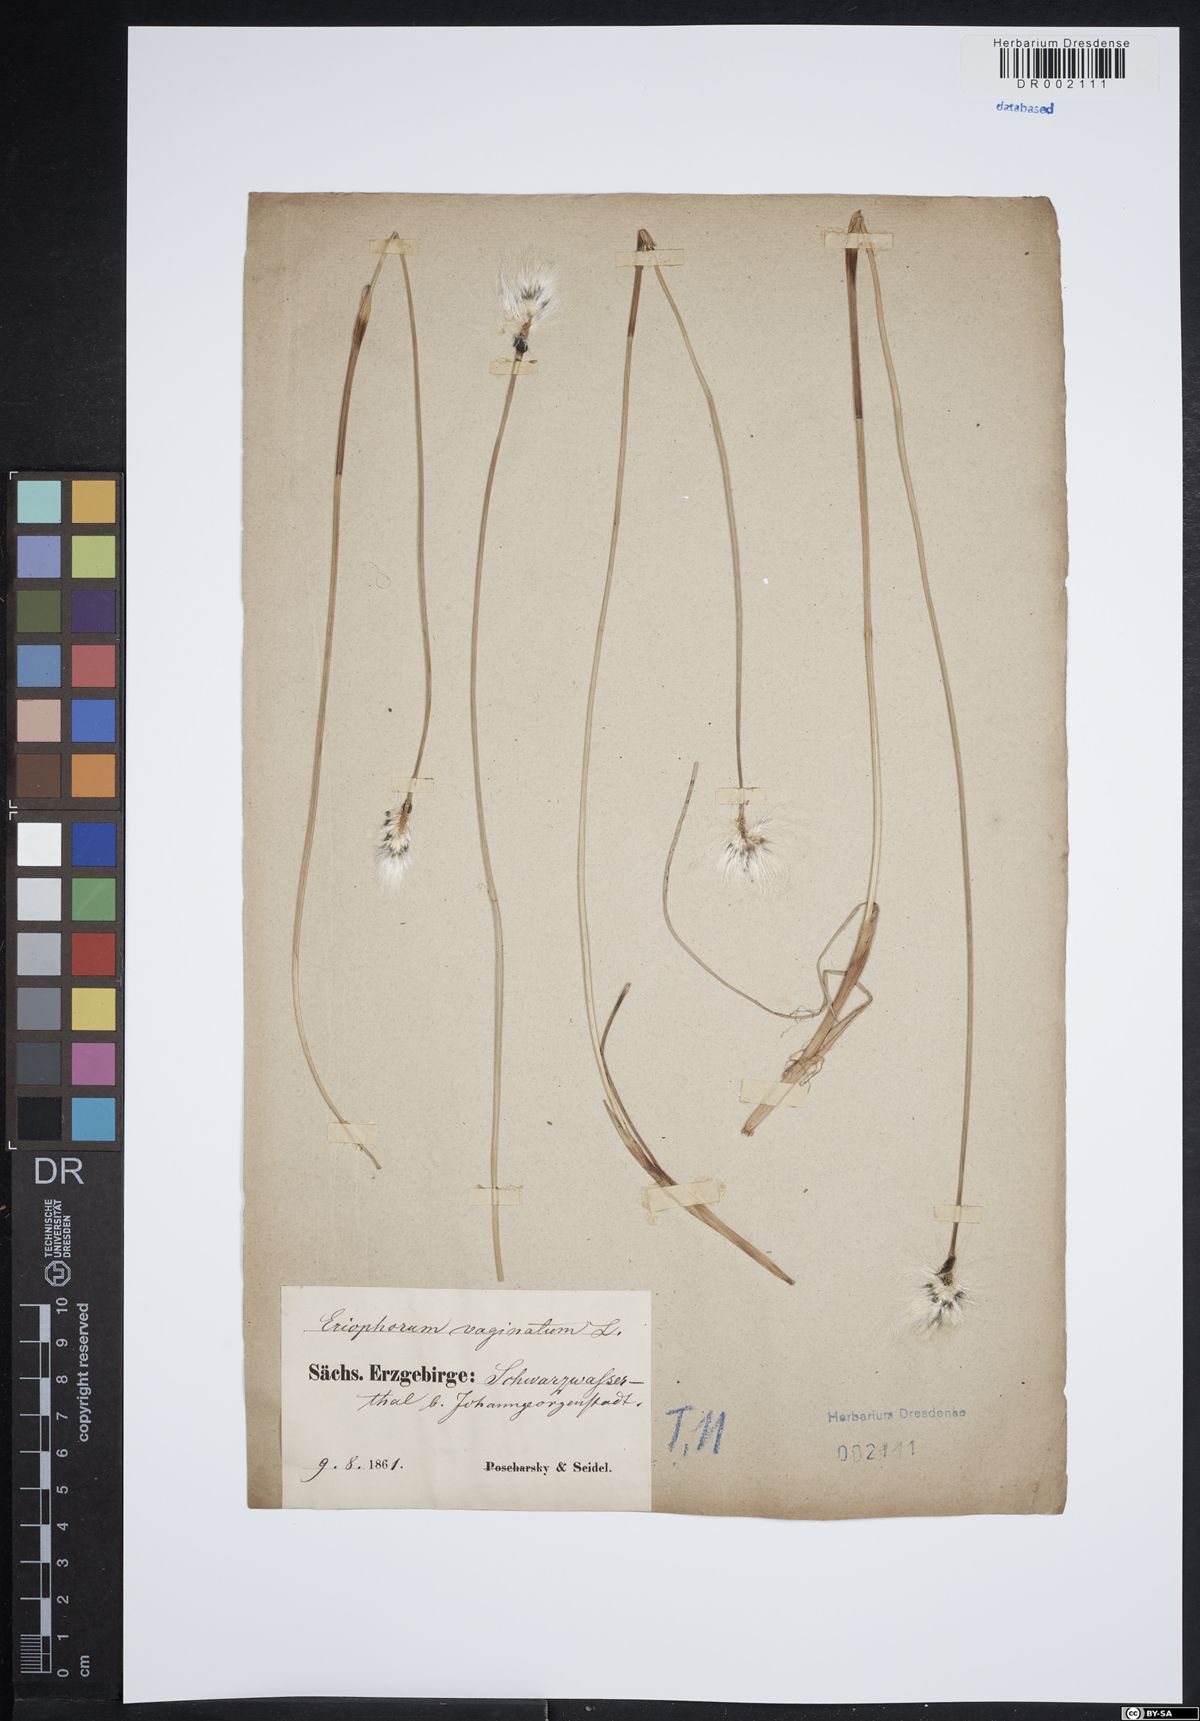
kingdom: Plantae
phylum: Tracheophyta
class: Liliopsida
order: Poales
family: Cyperaceae
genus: Eriophorum
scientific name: Eriophorum vaginatum
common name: Hare's-tail cottongrass
